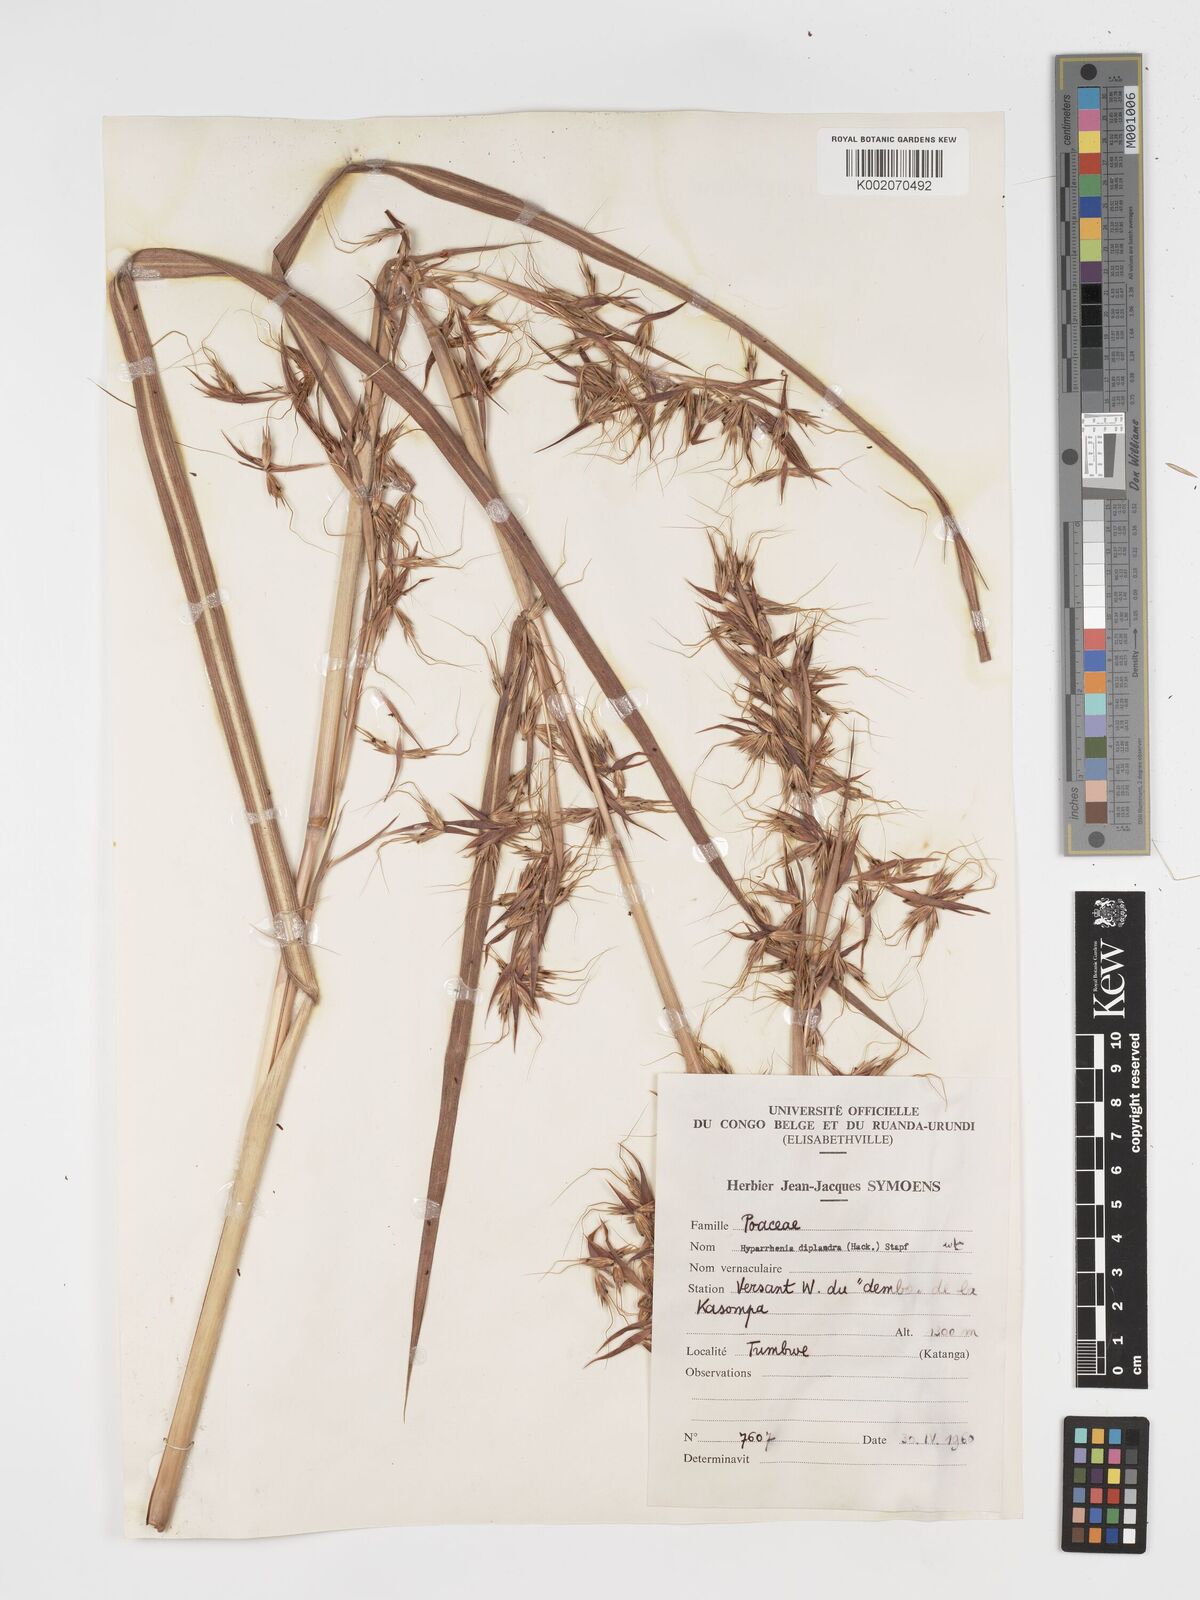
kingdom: Plantae
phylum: Tracheophyta
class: Liliopsida
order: Poales
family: Poaceae
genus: Hyparrhenia
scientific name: Hyparrhenia diplandra
